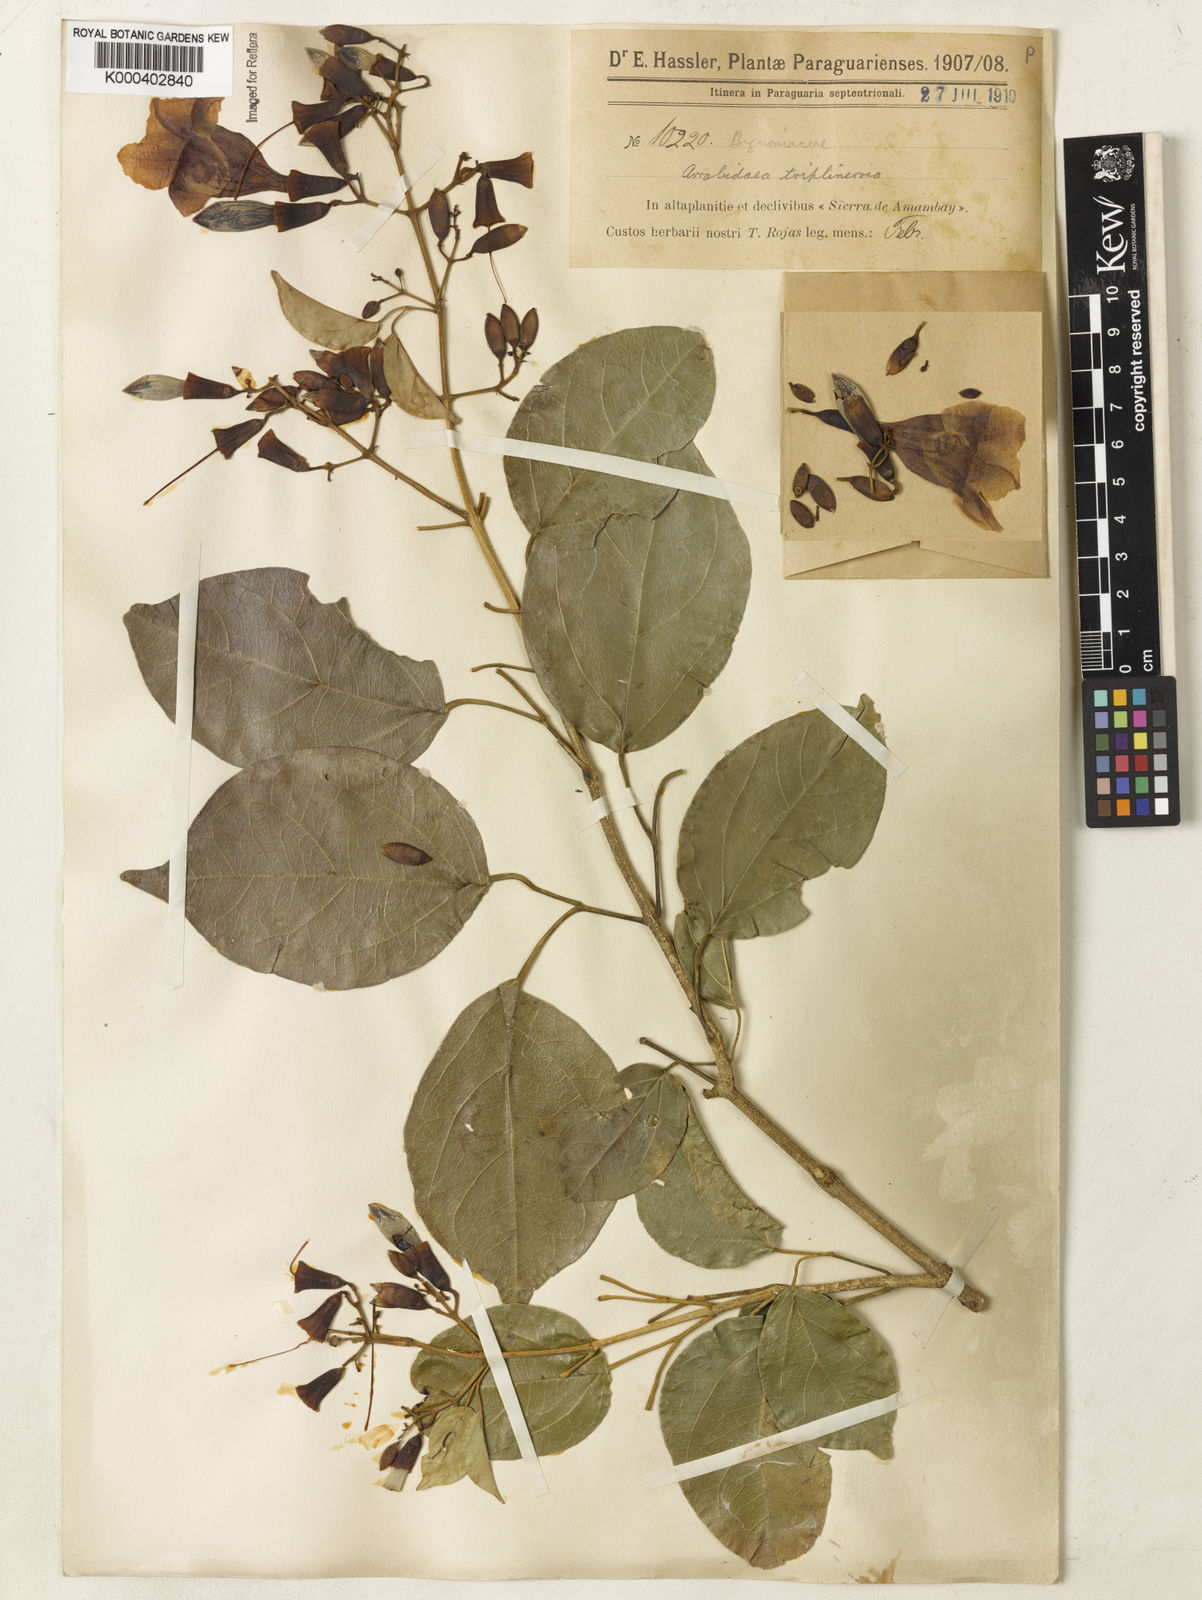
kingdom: Plantae
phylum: Tracheophyta
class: Magnoliopsida
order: Lamiales
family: Bignoniaceae
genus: Fridericia
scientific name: Fridericia triplinervia
